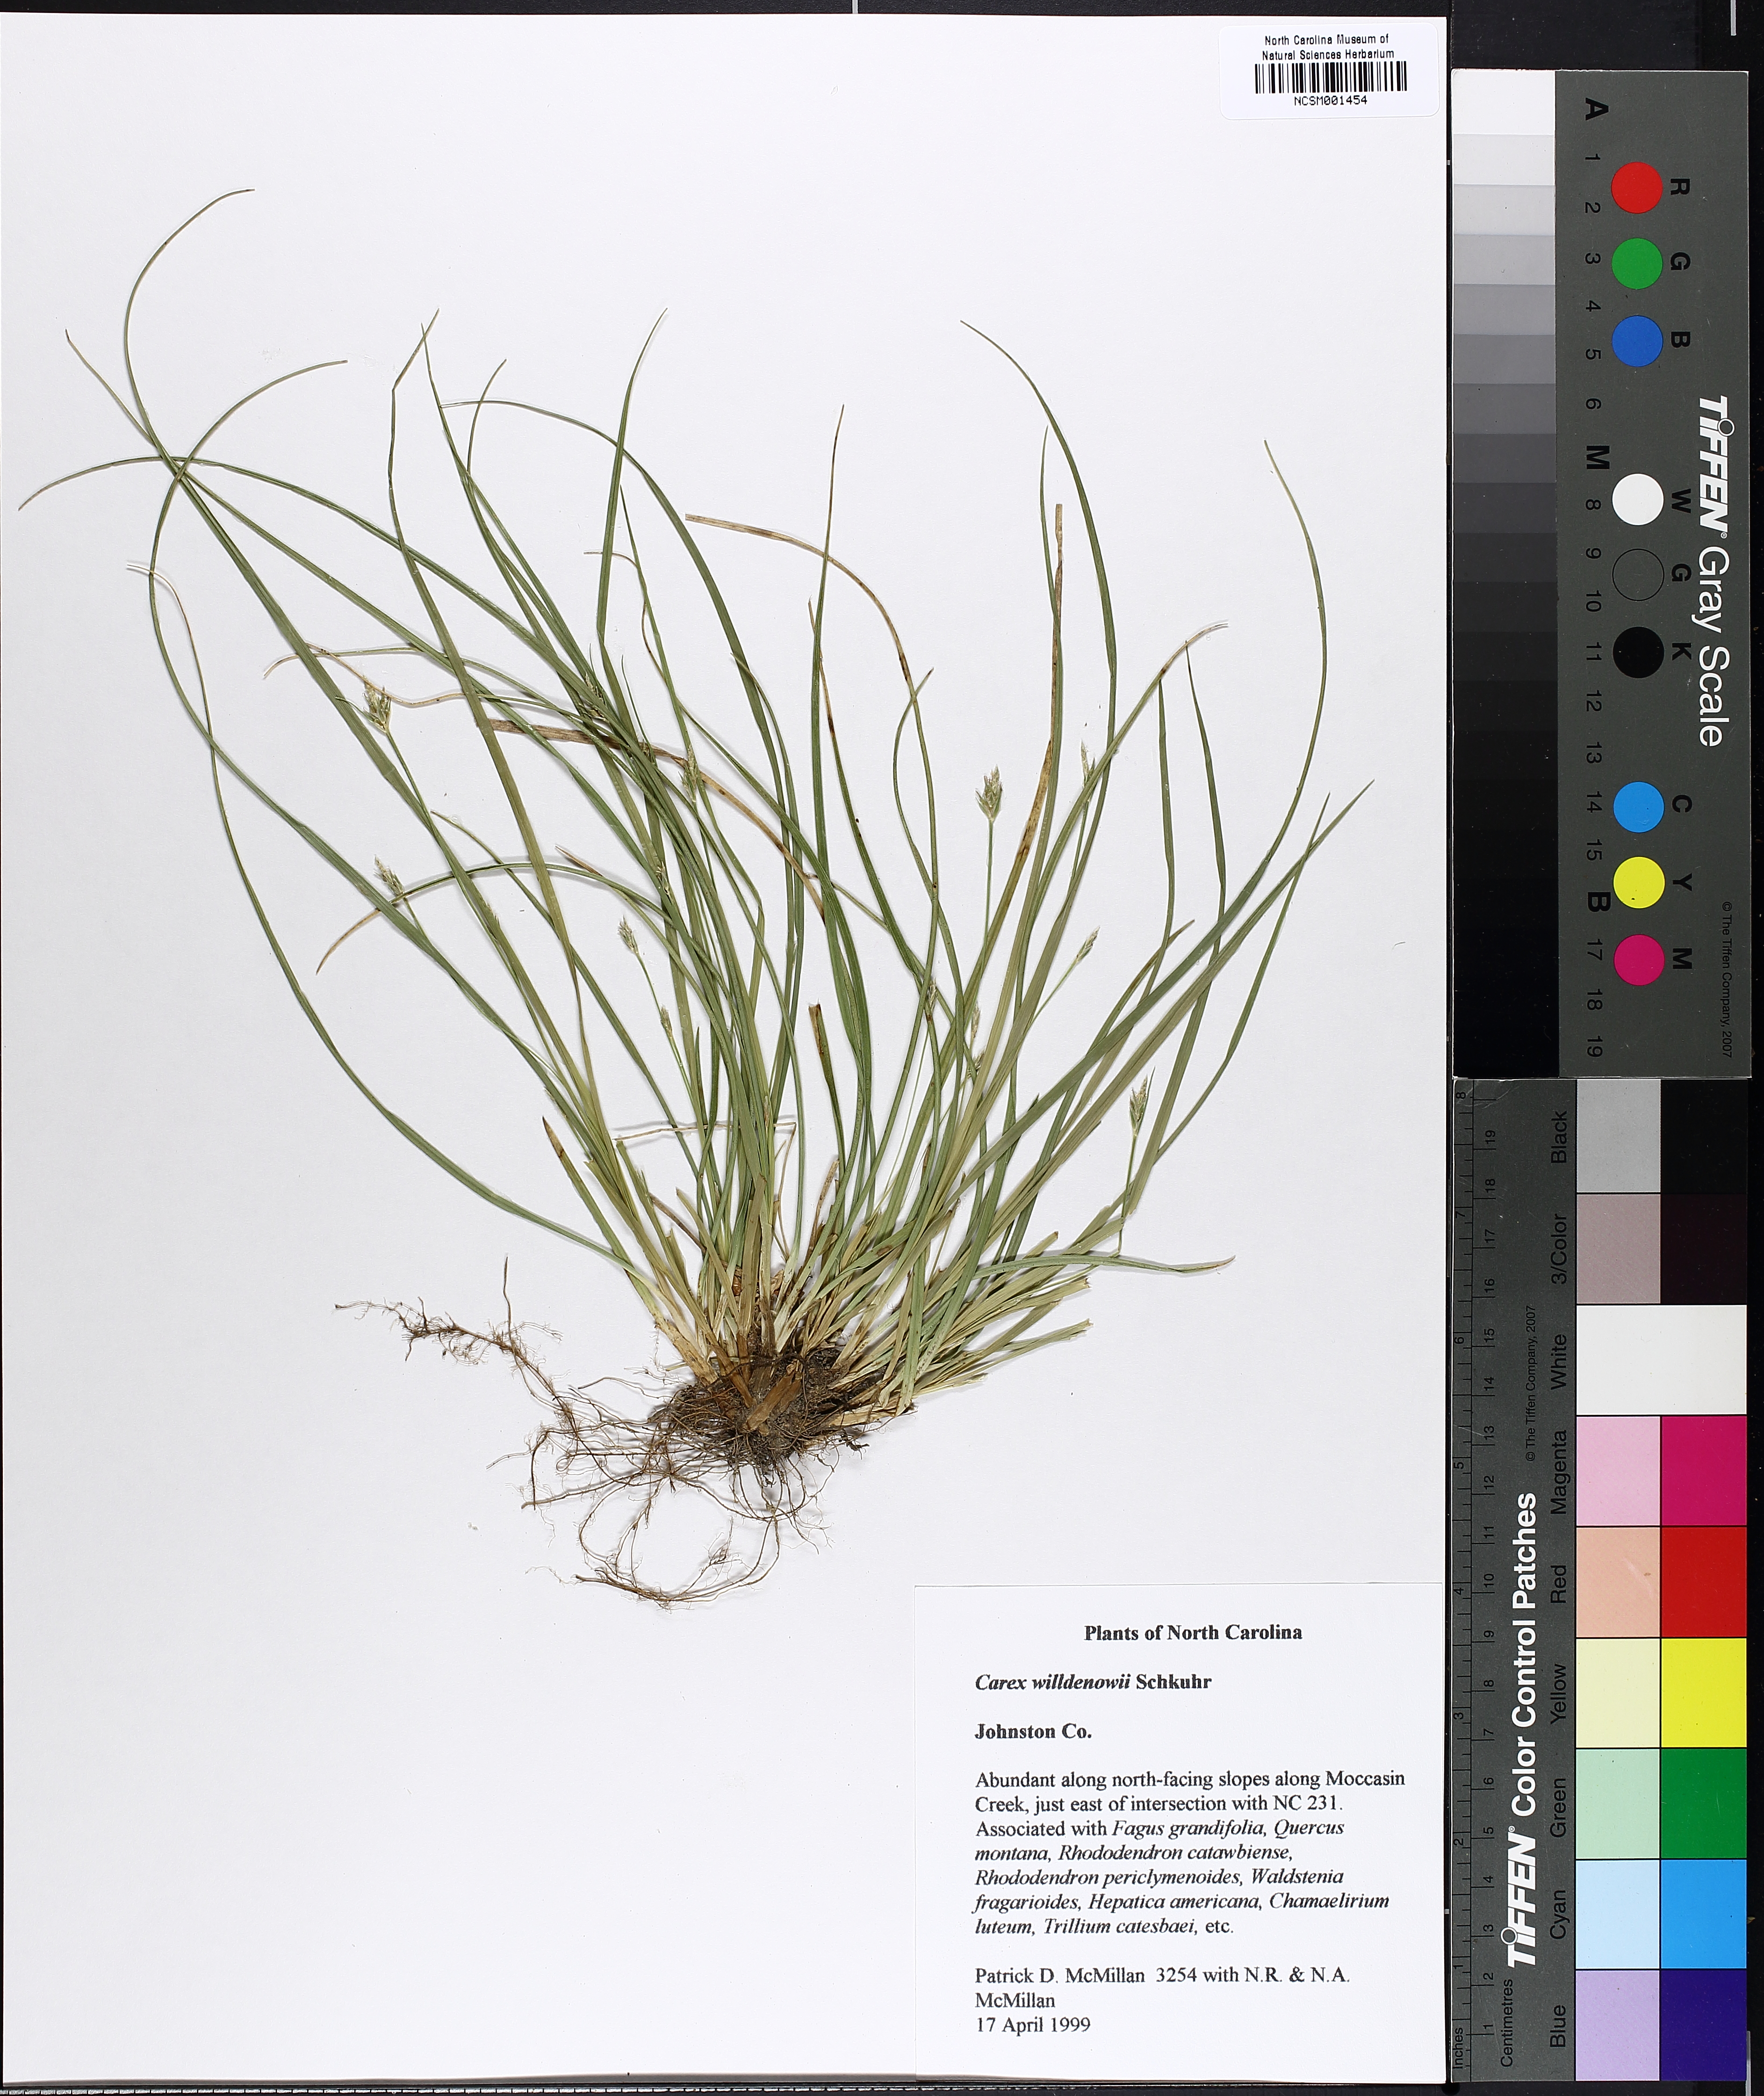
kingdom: Plantae
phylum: Tracheophyta
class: Liliopsida
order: Poales
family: Cyperaceae
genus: Carex
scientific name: Carex willdenowii
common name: Willdenow's sedge
